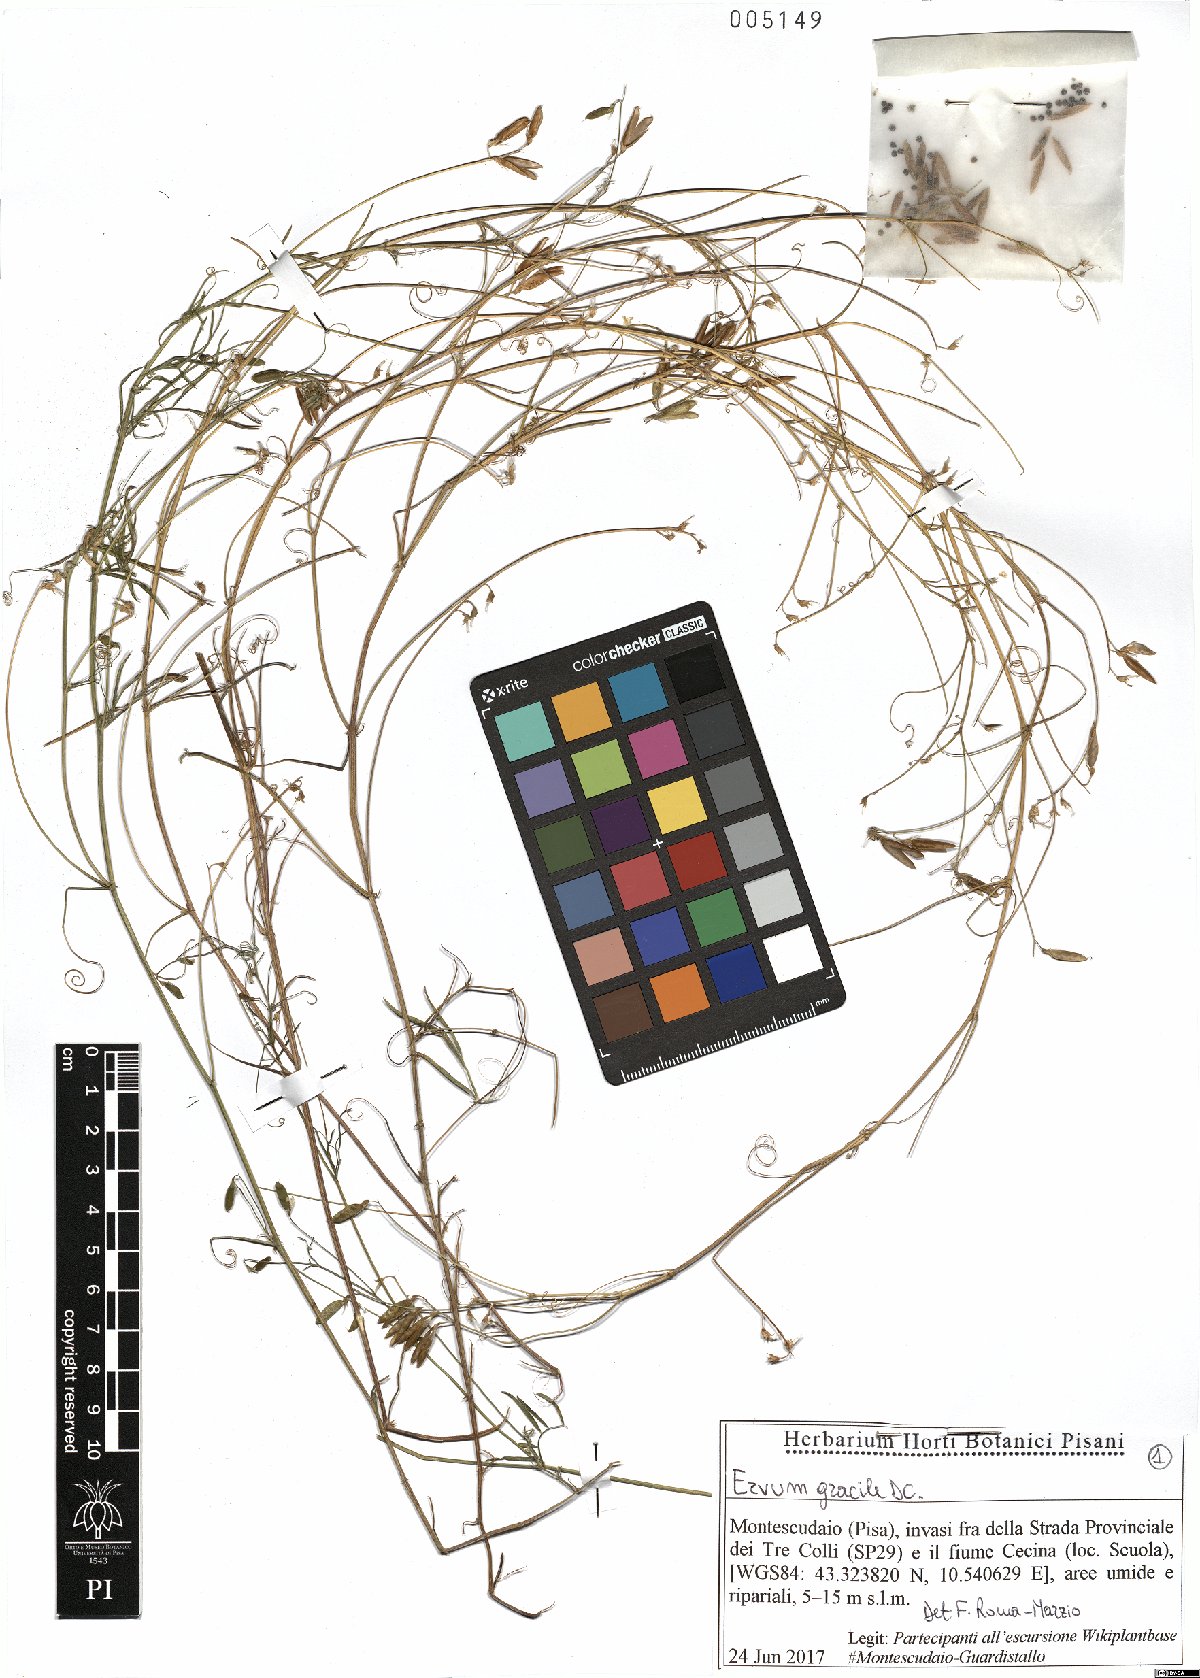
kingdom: Plantae
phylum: Tracheophyta
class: Magnoliopsida
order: Fabales
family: Fabaceae
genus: Vicia
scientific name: Vicia parviflora
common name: Slender tare
